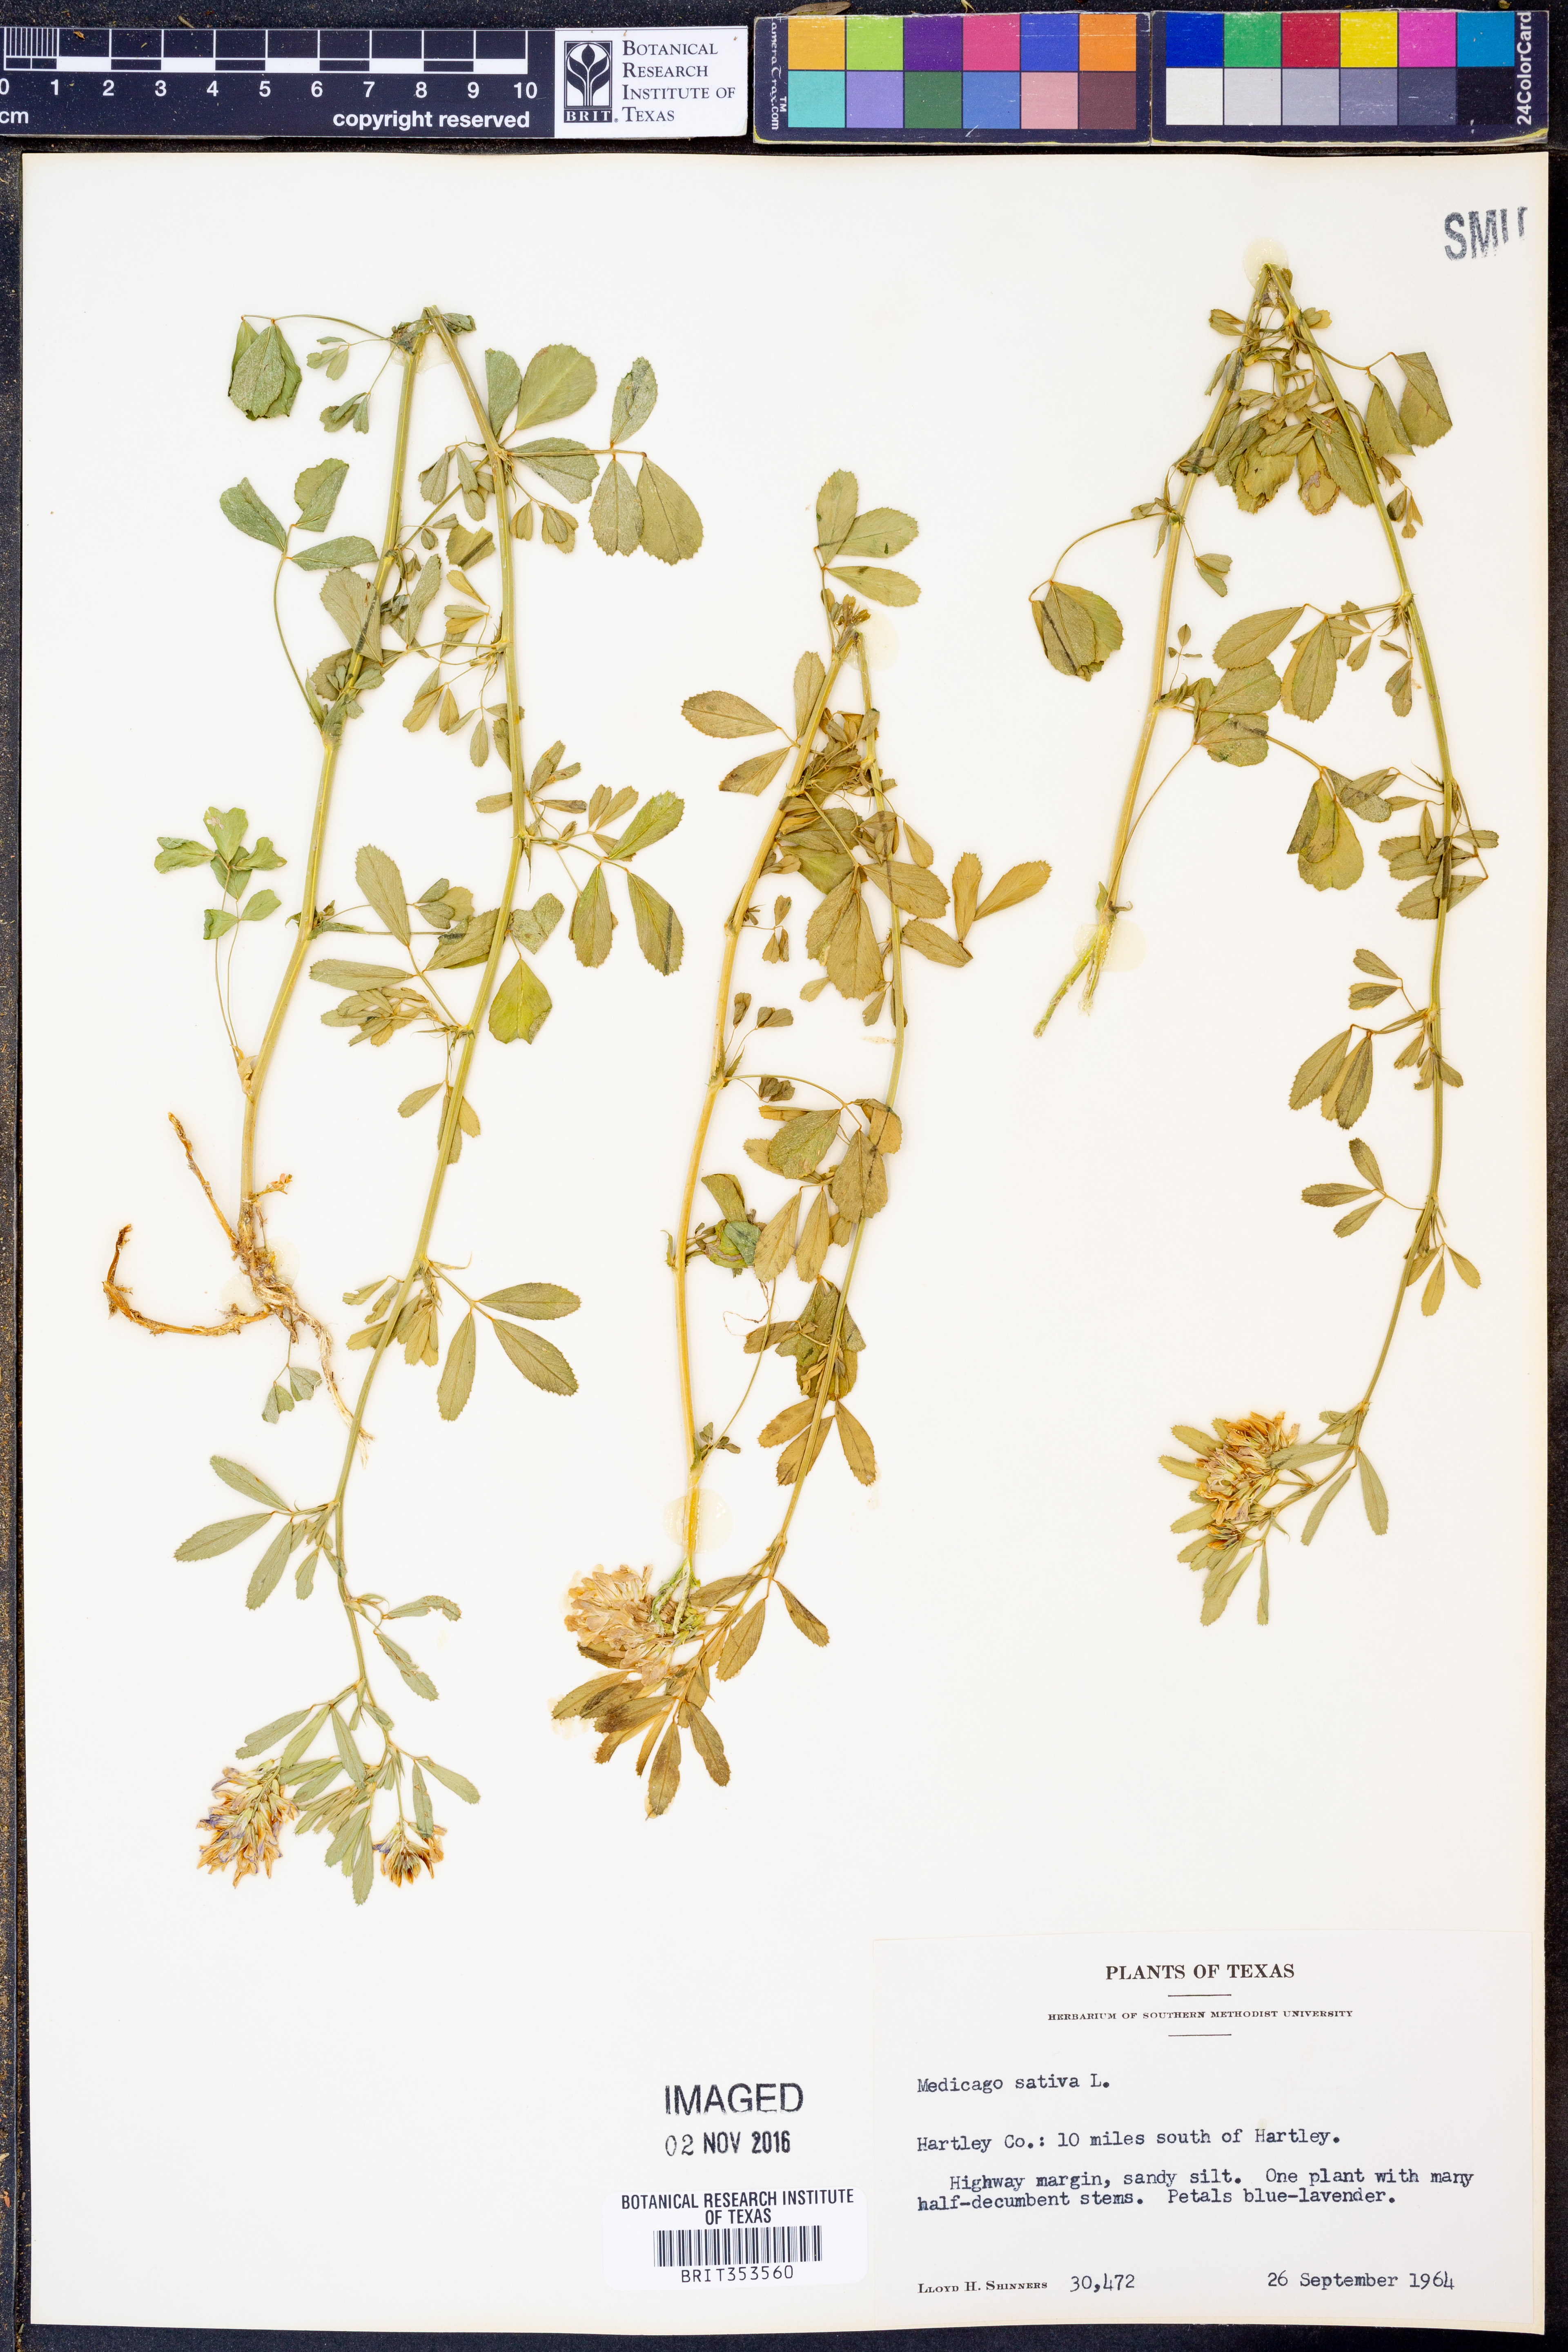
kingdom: Plantae
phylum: Tracheophyta
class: Magnoliopsida
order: Fabales
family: Fabaceae
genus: Medicago
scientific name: Medicago sativa
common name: Alfalfa
